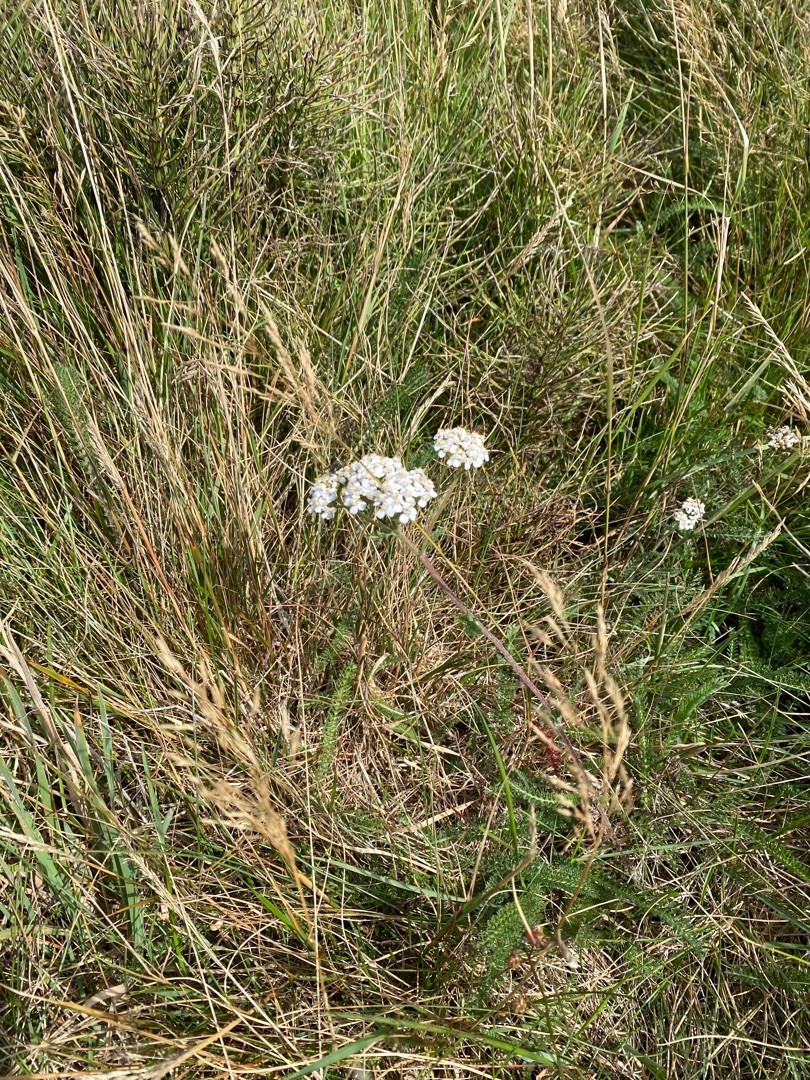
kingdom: Plantae
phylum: Tracheophyta
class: Magnoliopsida
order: Asterales
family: Asteraceae
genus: Achillea
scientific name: Achillea millefolium
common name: Almindelig røllike
